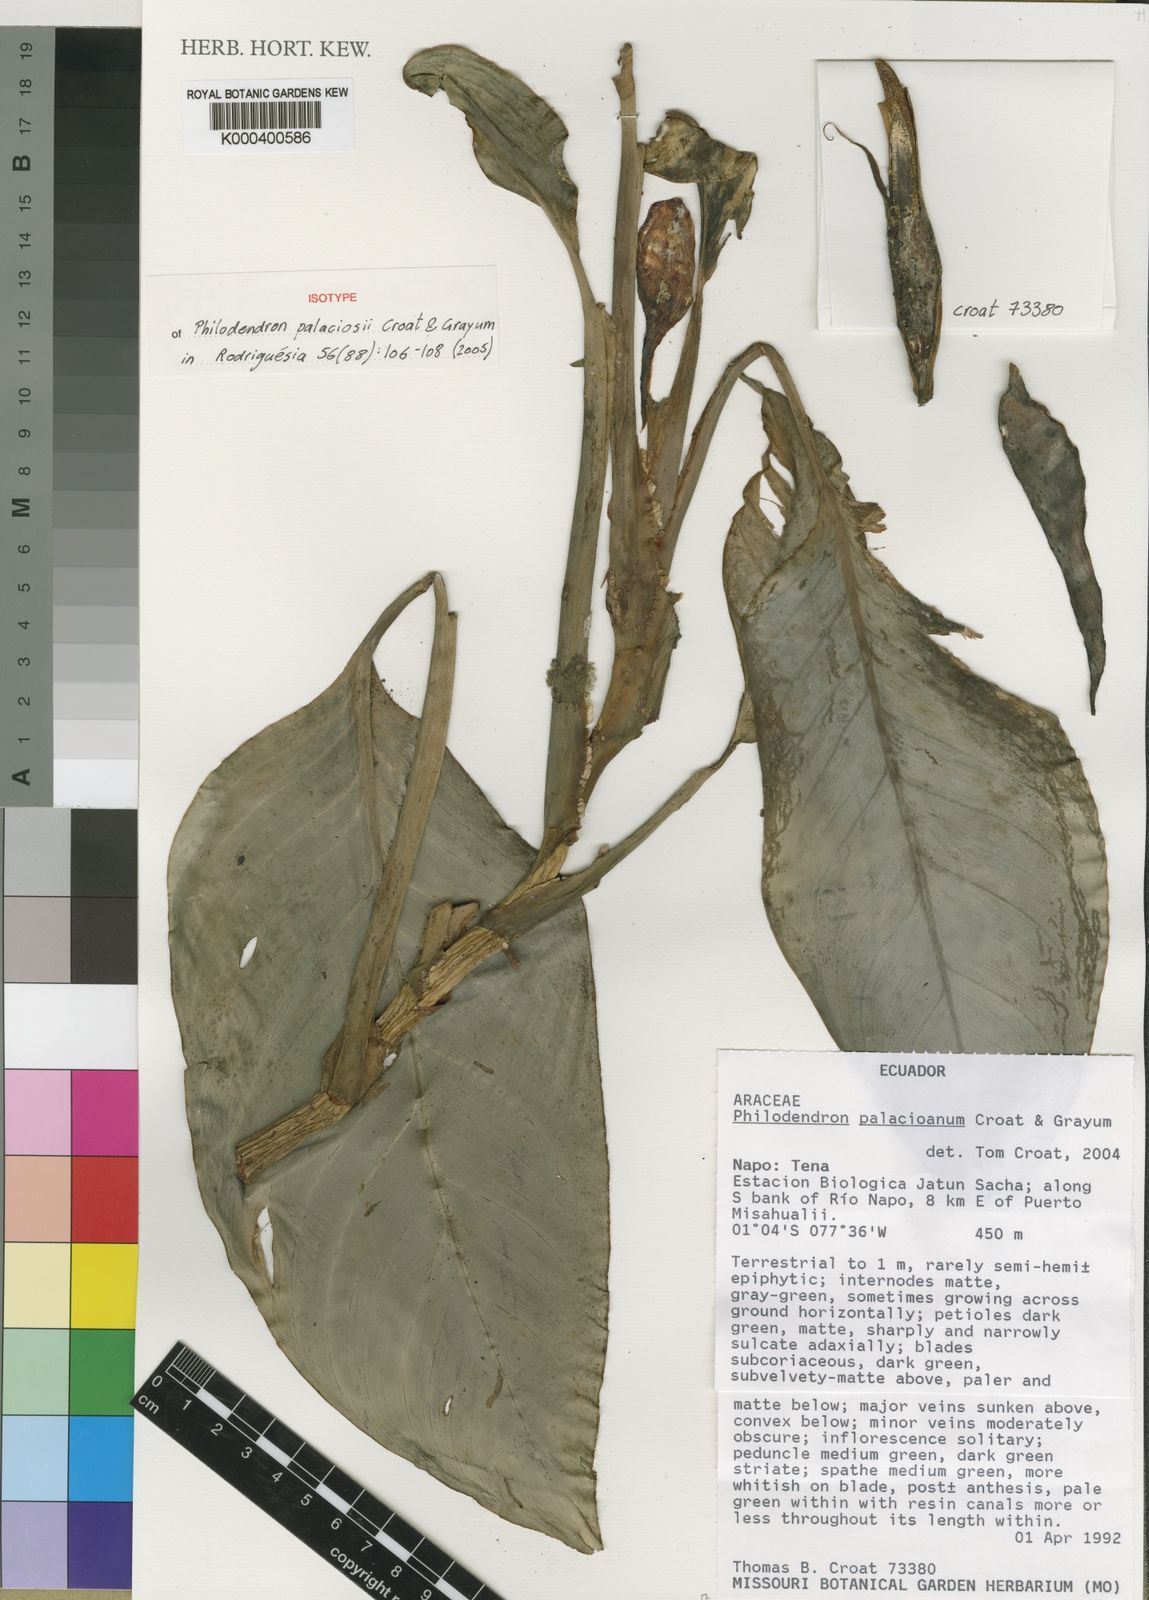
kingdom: Plantae
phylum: Tracheophyta
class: Liliopsida
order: Alismatales
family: Araceae
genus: Philodendron
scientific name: Philodendron palaciosii
